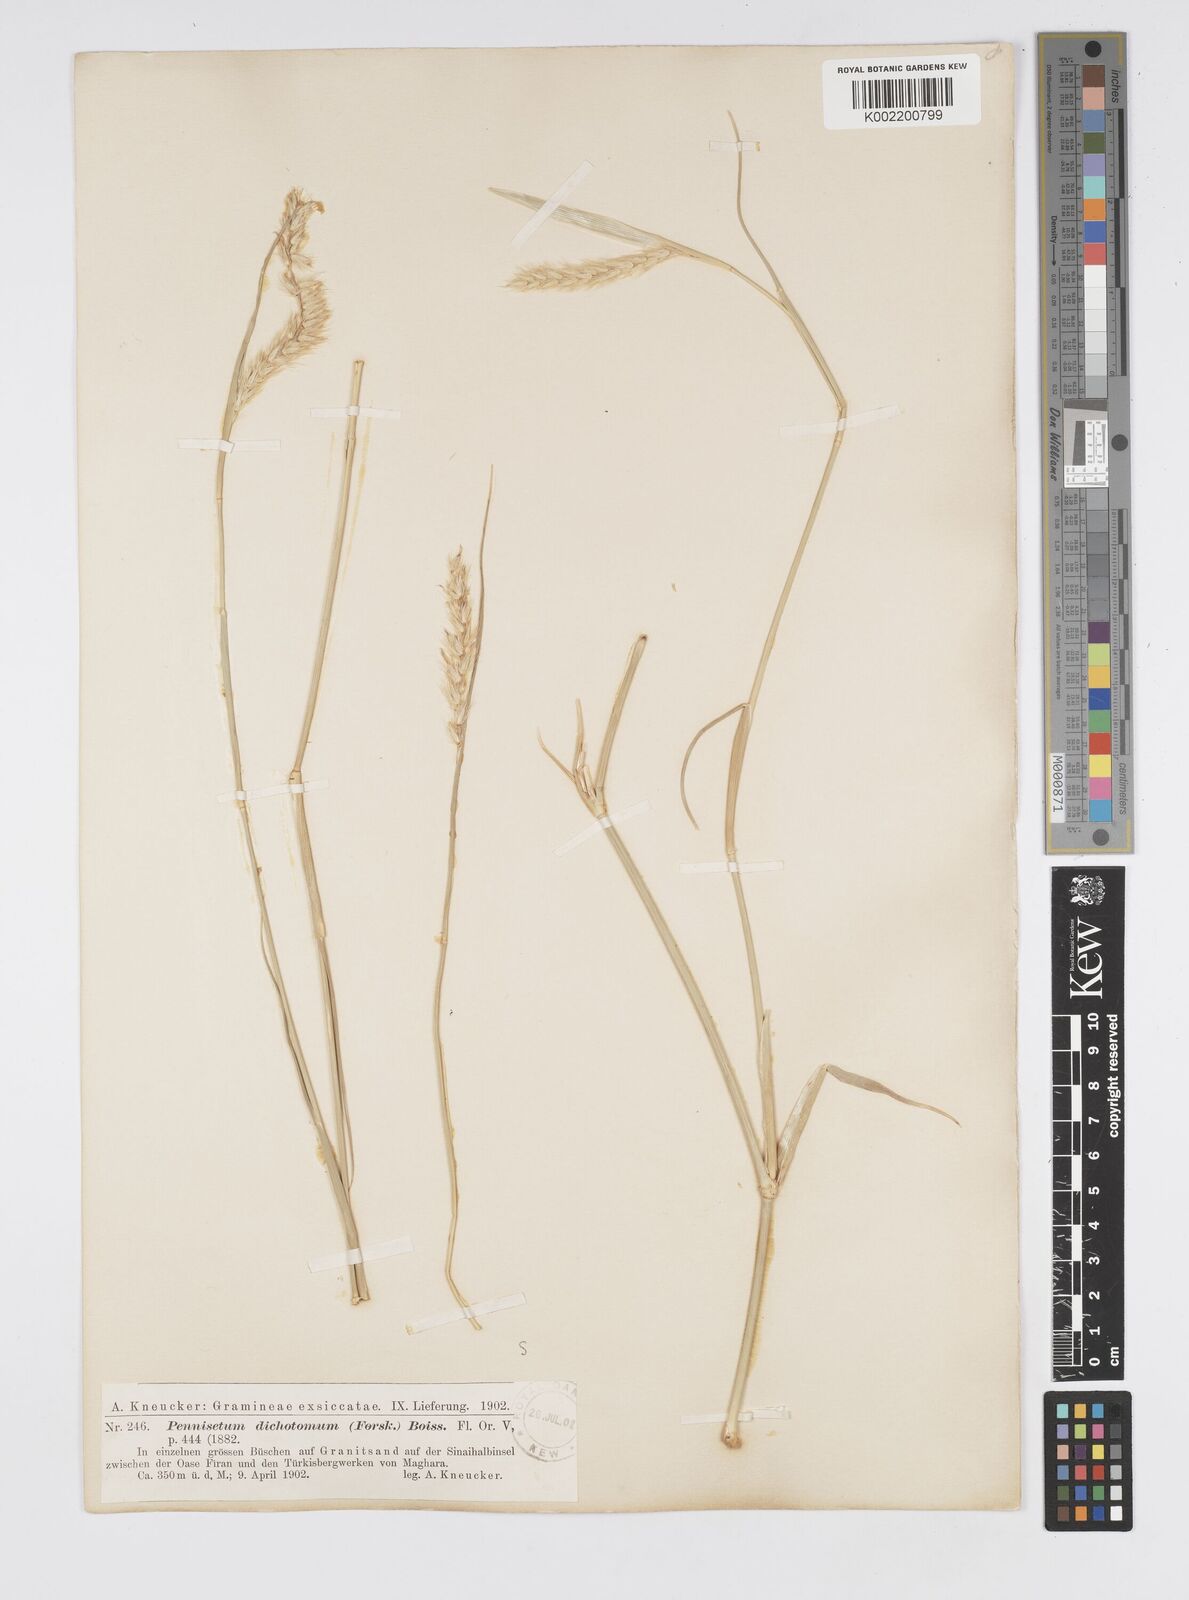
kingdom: Plantae
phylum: Tracheophyta
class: Liliopsida
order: Poales
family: Poaceae
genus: Cenchrus
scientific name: Cenchrus divisus
